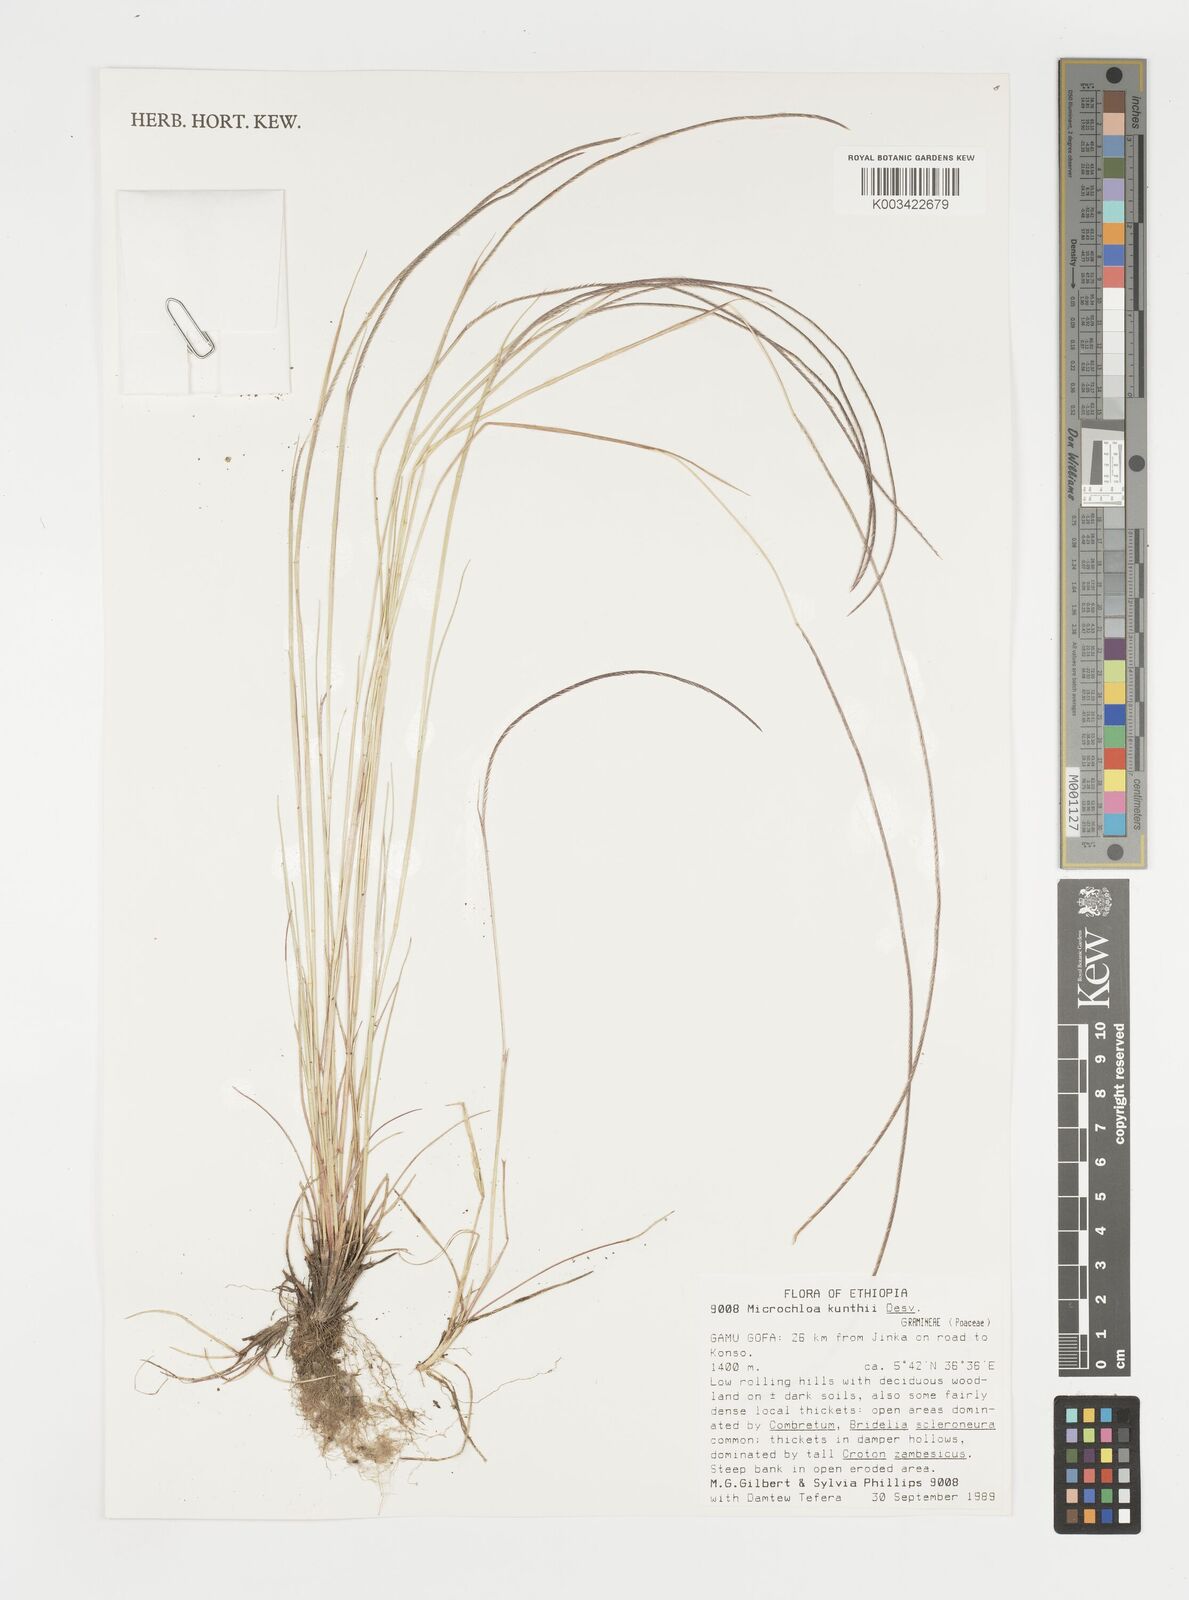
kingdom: Plantae
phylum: Tracheophyta
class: Liliopsida
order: Poales
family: Poaceae
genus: Microchloa
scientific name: Microchloa kunthii
